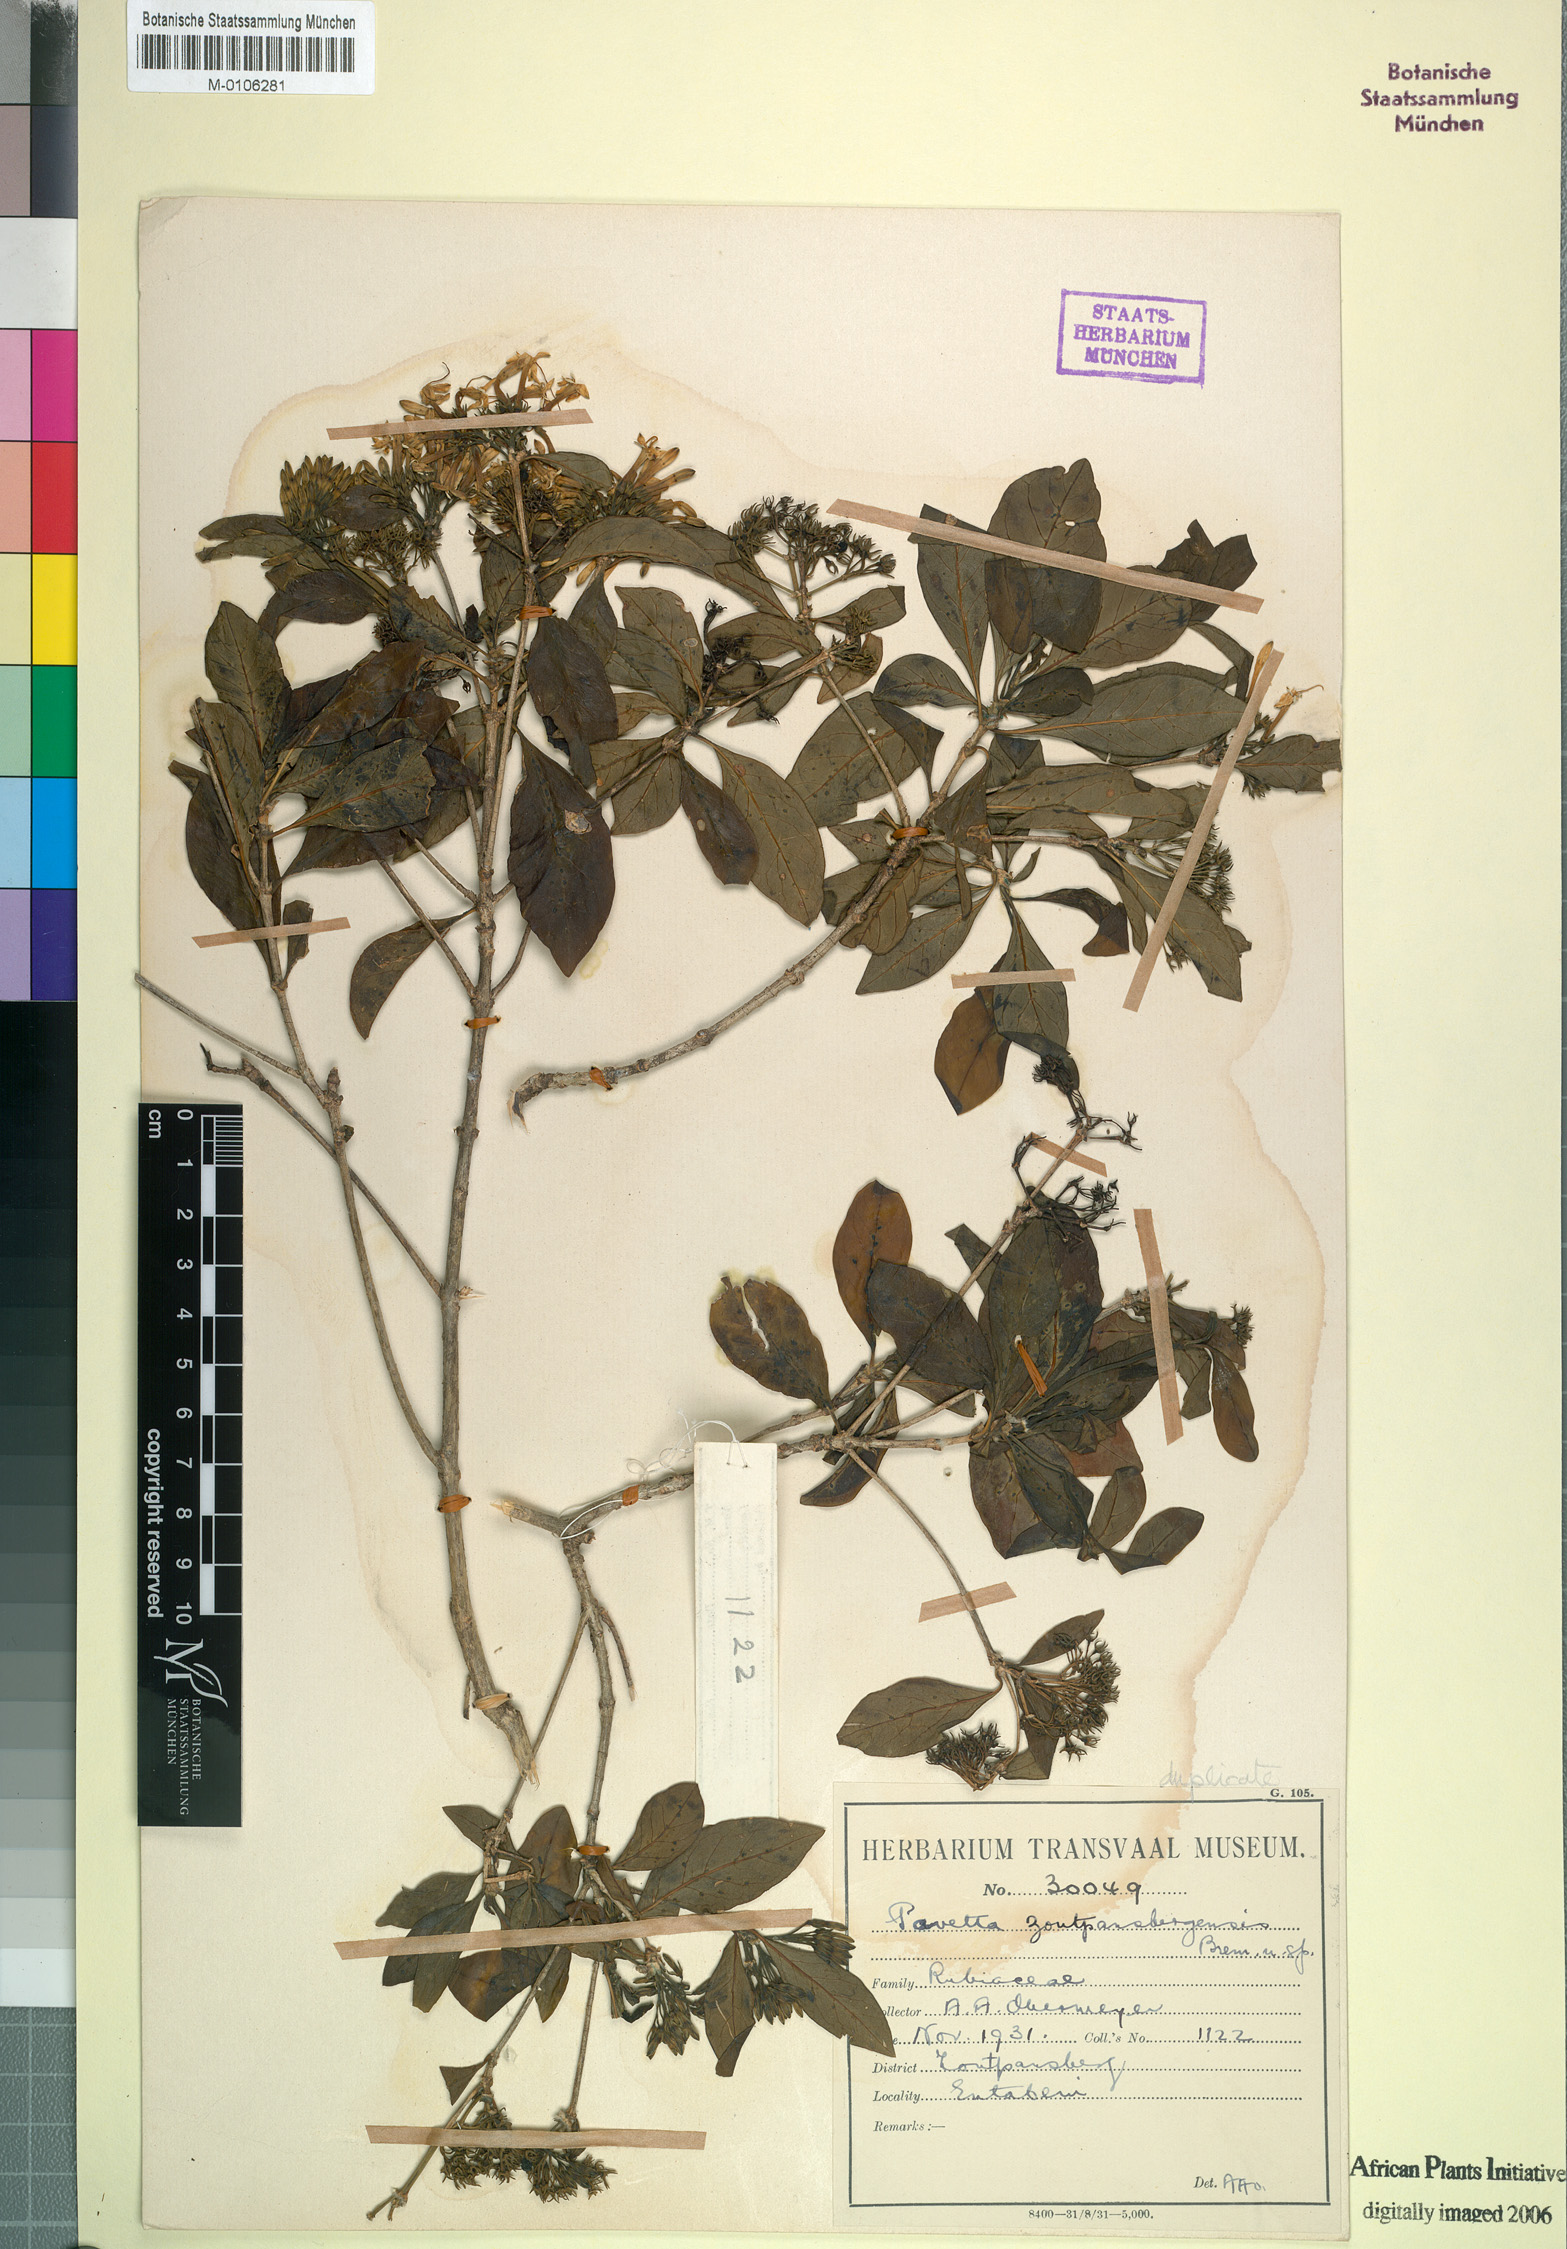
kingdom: Plantae
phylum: Tracheophyta
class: Magnoliopsida
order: Gentianales
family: Rubiaceae
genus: Pavetta
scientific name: Pavetta trichardtensis
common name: Soutpansberg brides-bush
